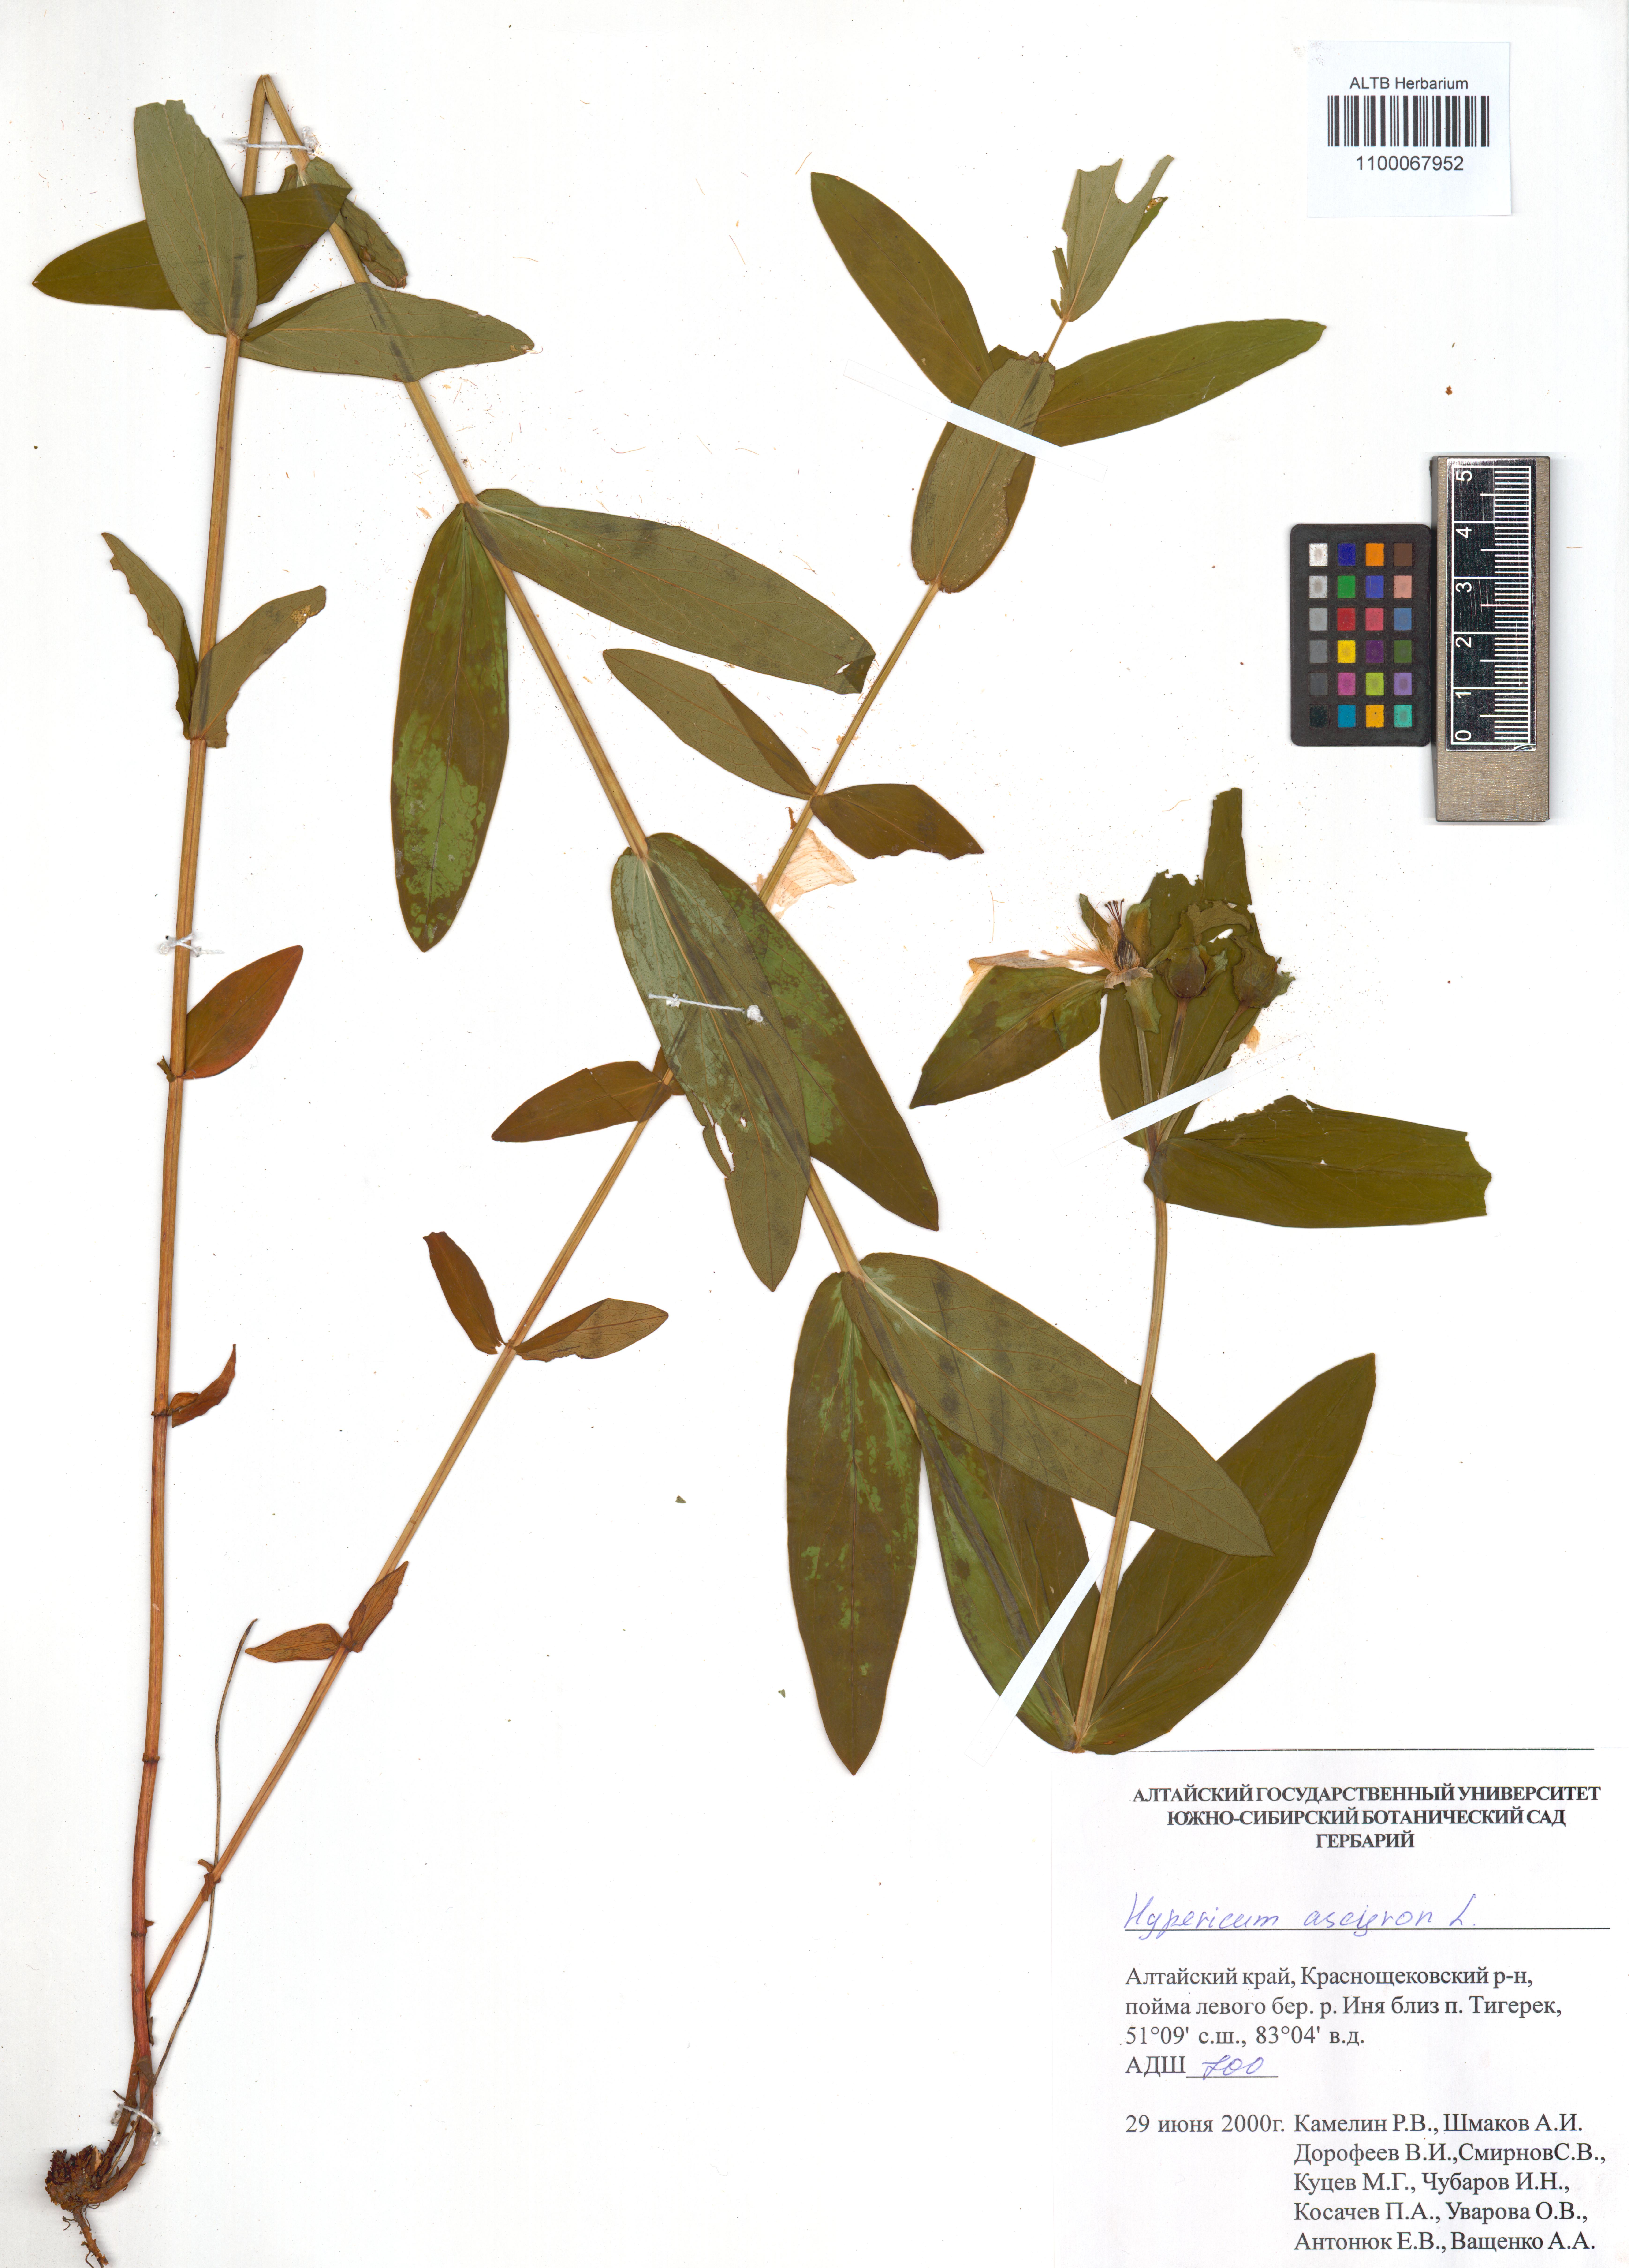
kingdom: Plantae
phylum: Tracheophyta
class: Magnoliopsida
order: Malpighiales
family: Hypericaceae
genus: Hypericum
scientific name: Hypericum ascyron
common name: Giant st. john's-wort
